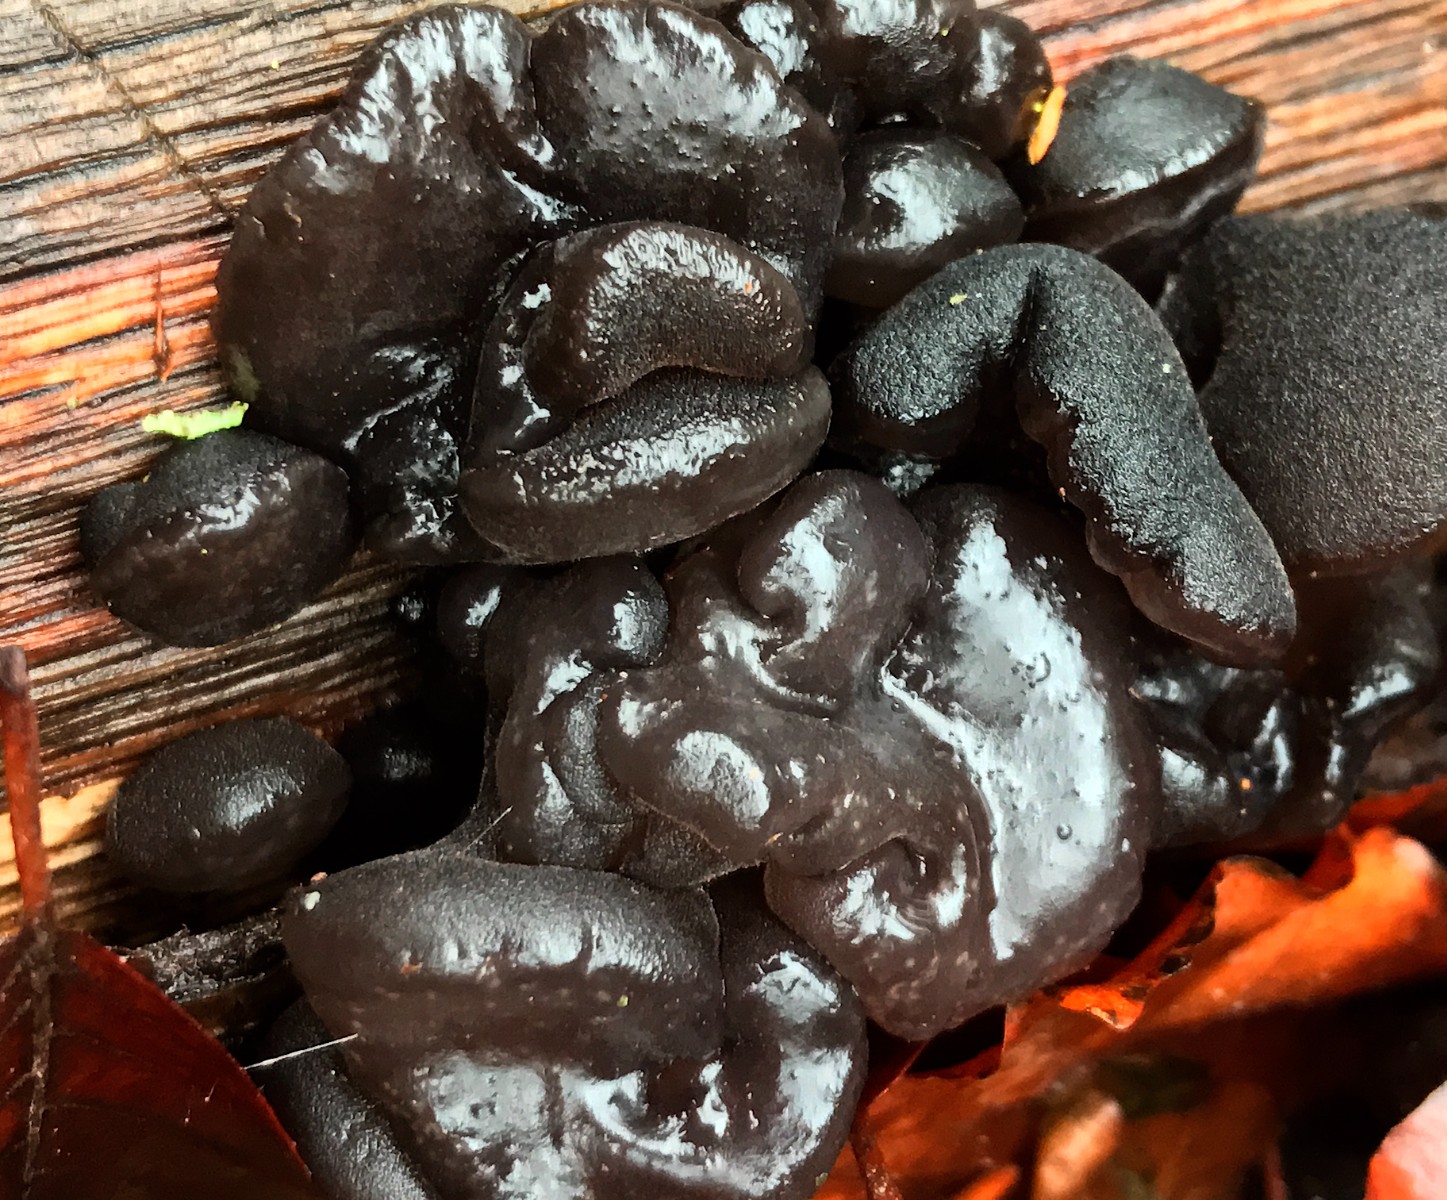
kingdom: Fungi
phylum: Basidiomycota
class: Agaricomycetes
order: Auriculariales
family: Auriculariaceae
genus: Exidia
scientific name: Exidia nigricans
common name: almindelig bævretop
